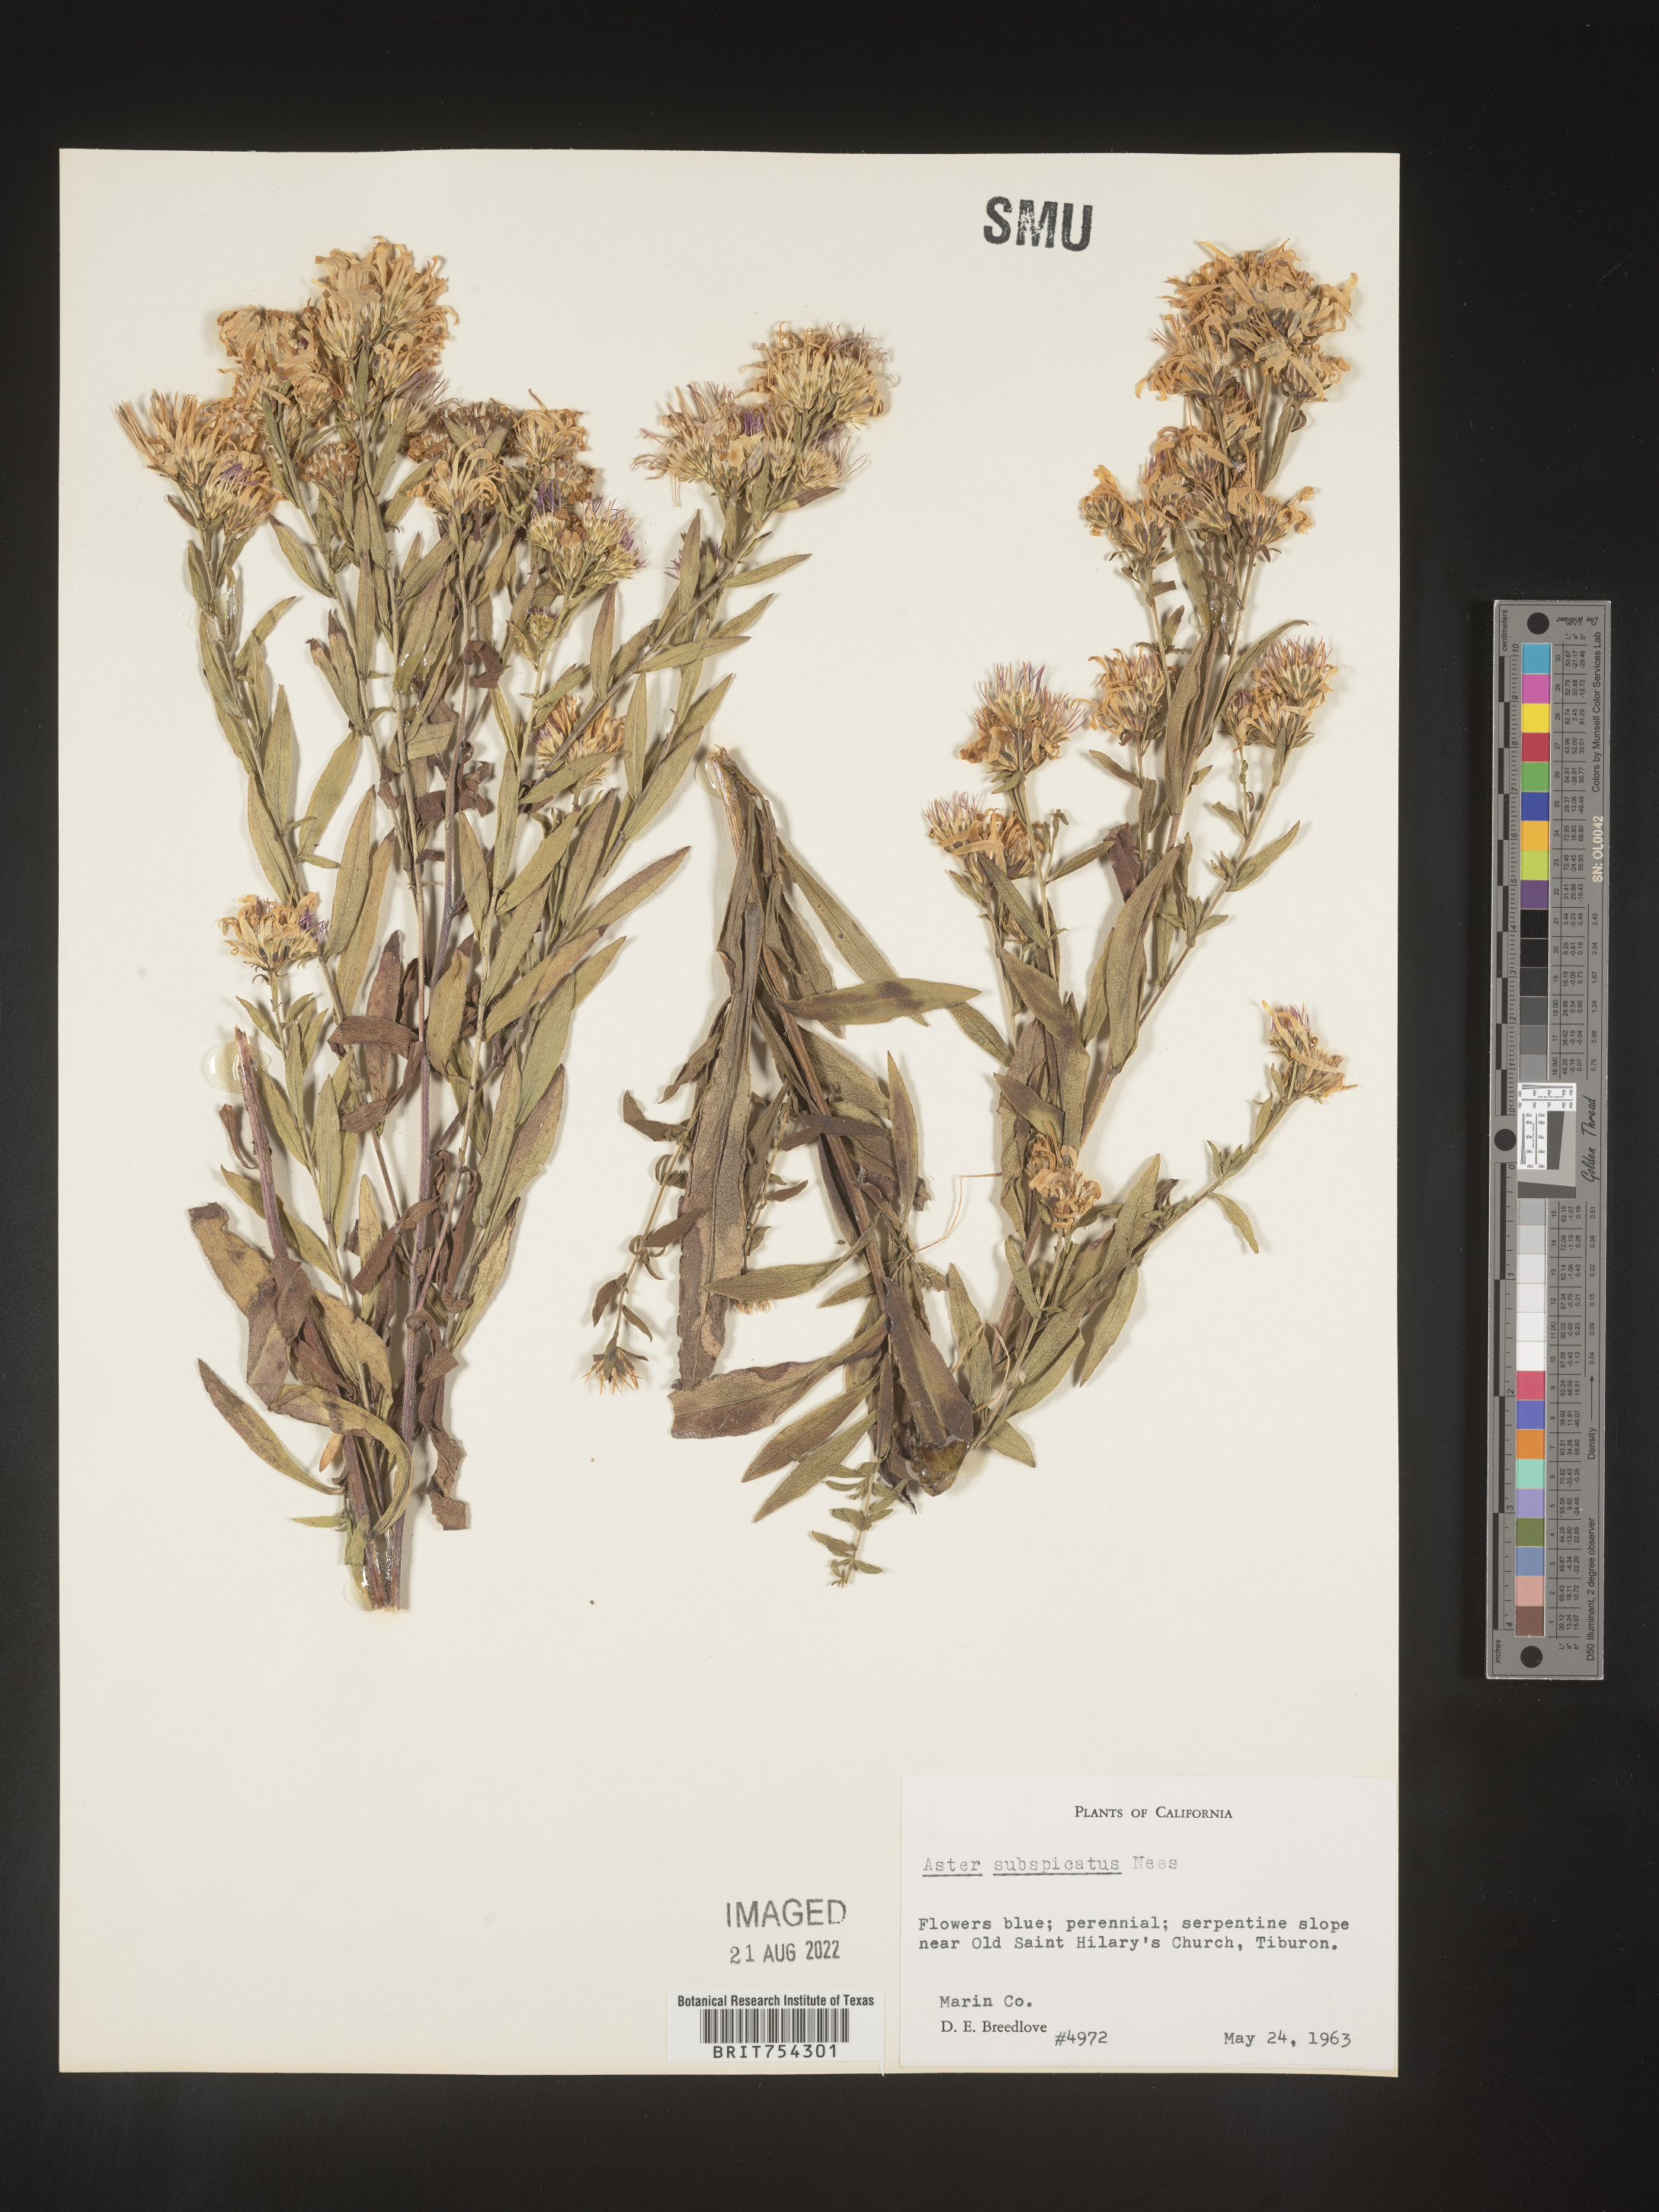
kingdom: Plantae
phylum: Tracheophyta
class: Magnoliopsida
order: Asterales
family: Asteraceae
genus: Symphyotrichum
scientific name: Symphyotrichum subspicatum
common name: Douglas' aster
